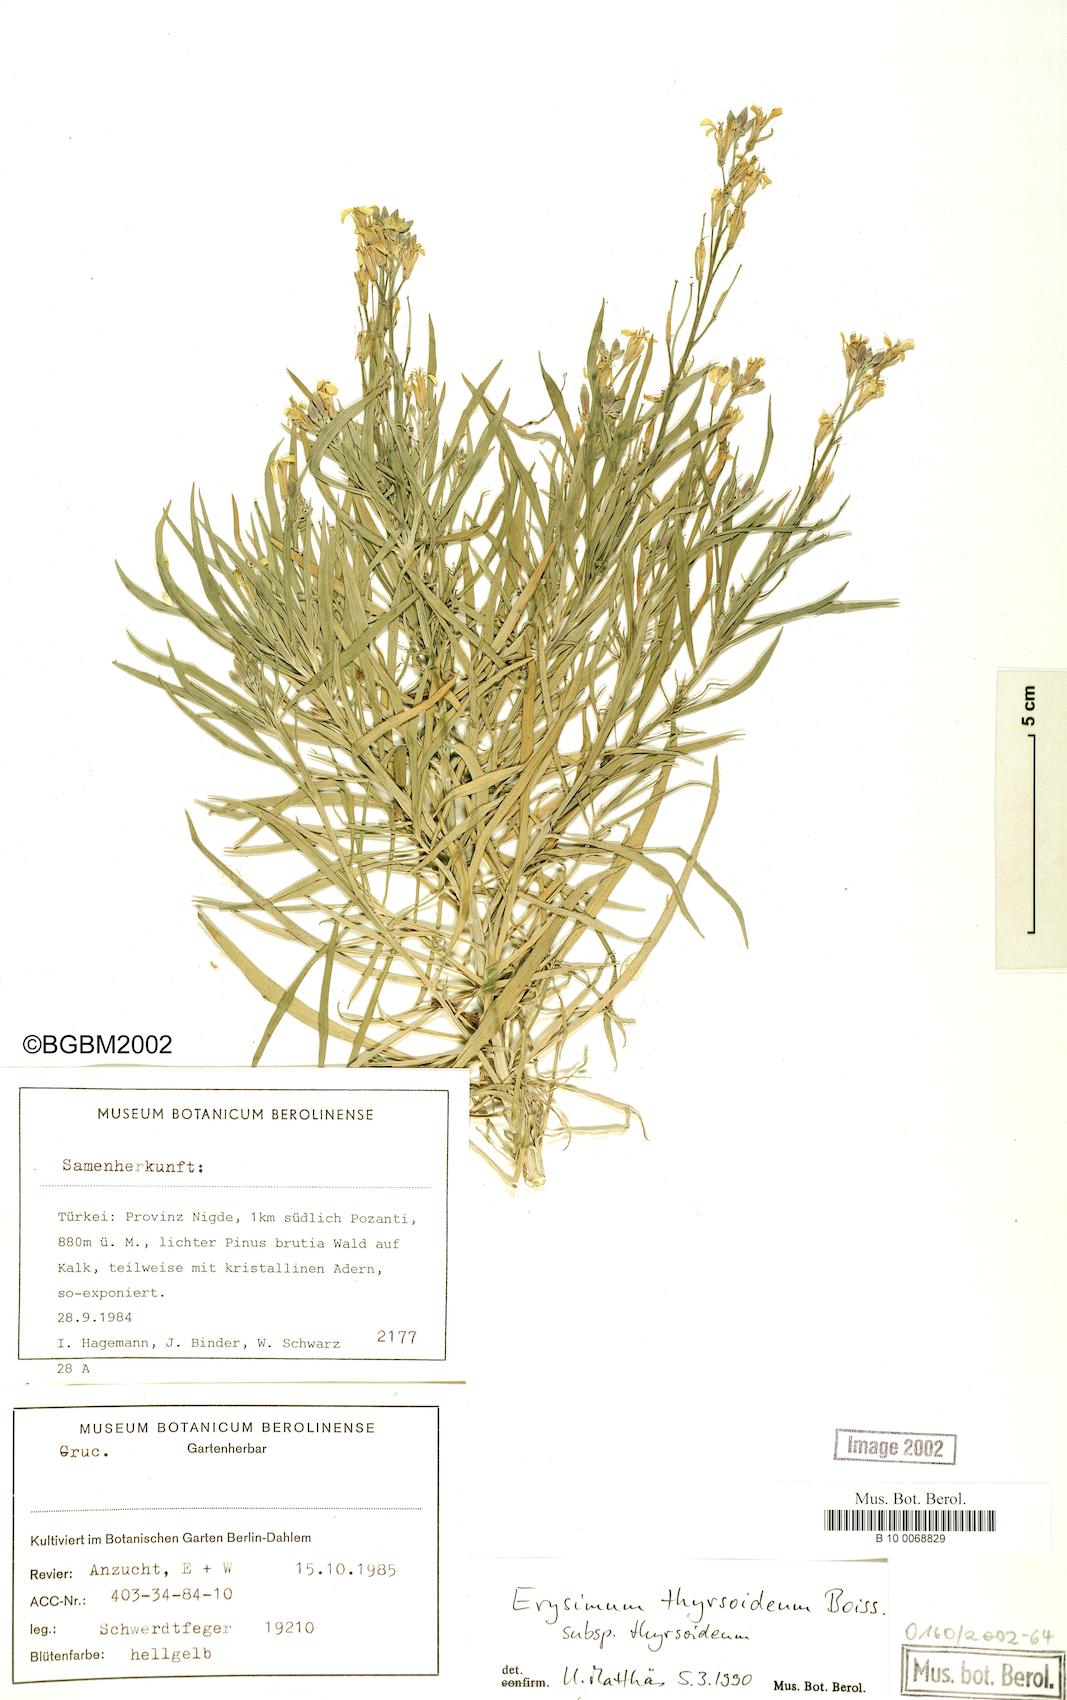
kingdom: Plantae
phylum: Tracheophyta
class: Magnoliopsida
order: Brassicales
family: Brassicaceae
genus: Erysimum
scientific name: Erysimum pycnophyllum
